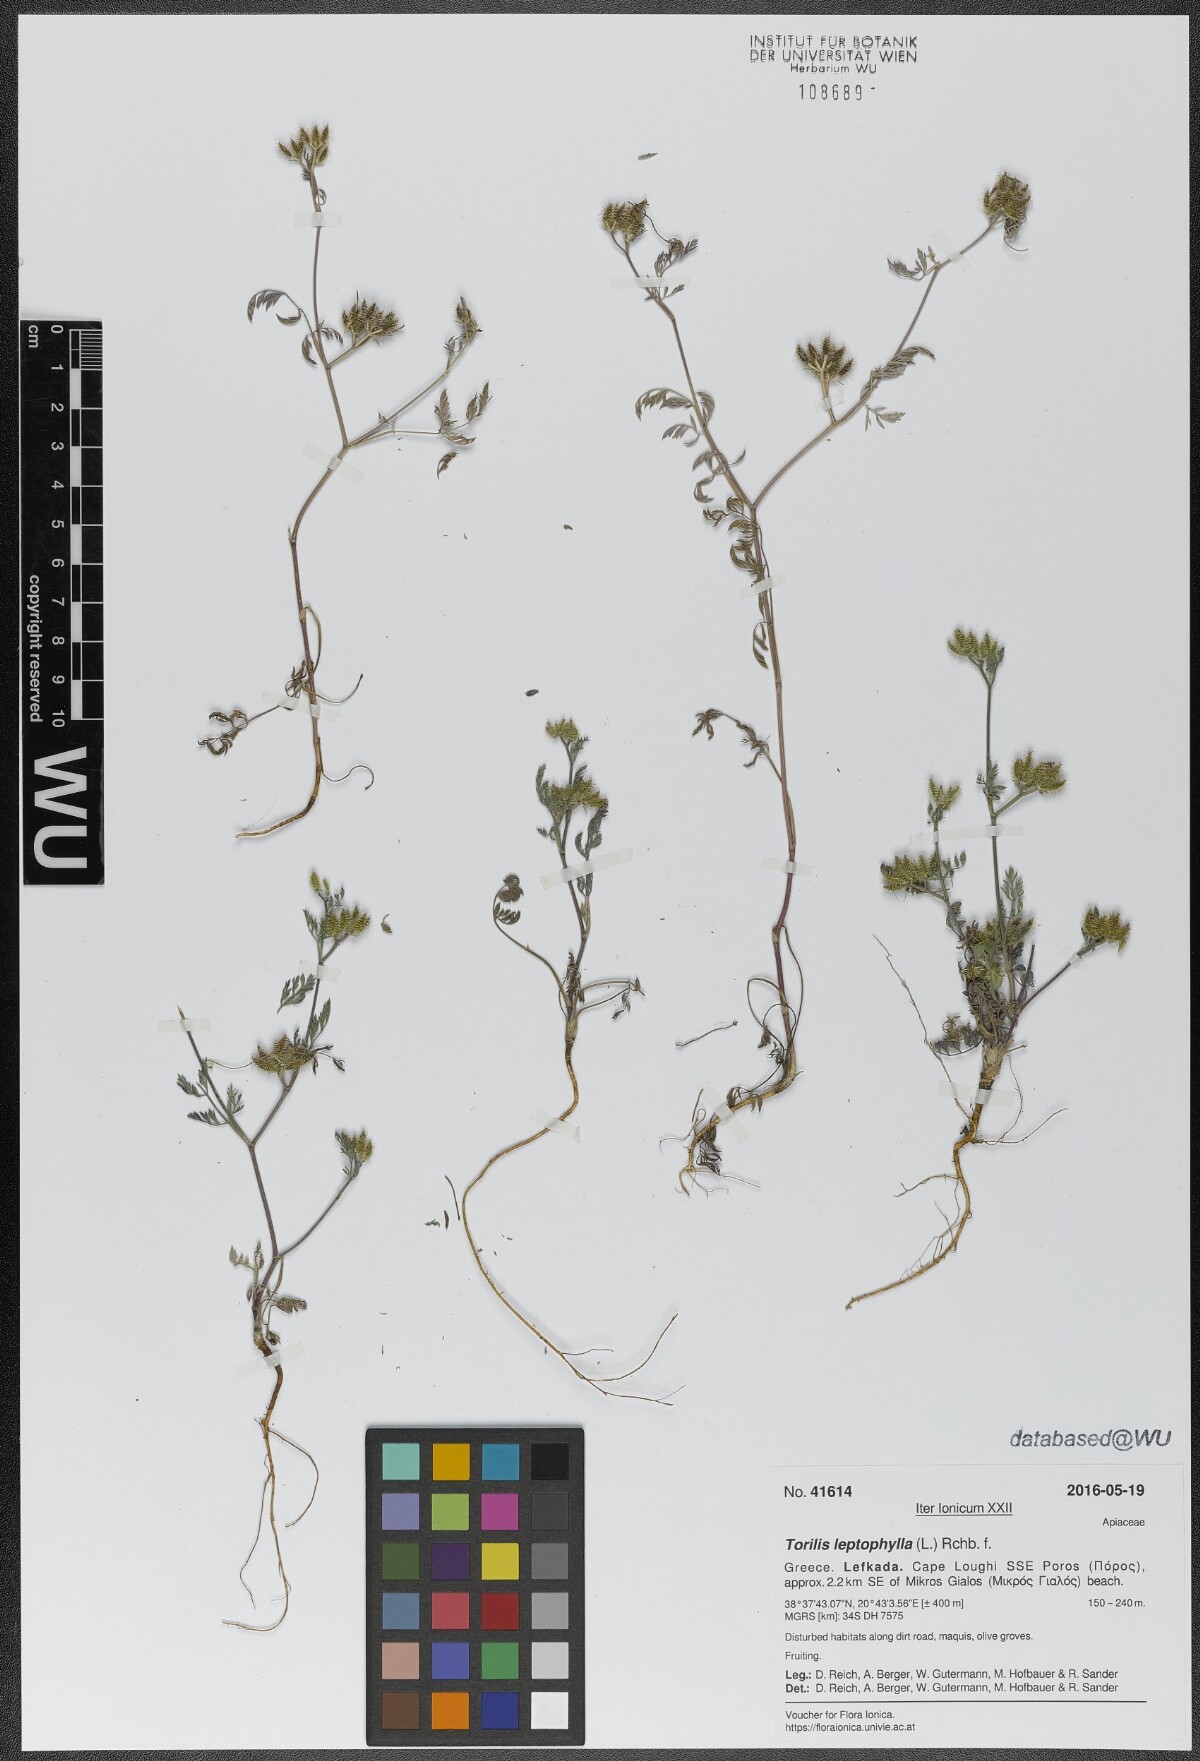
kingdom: Plantae
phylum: Tracheophyta
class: Magnoliopsida
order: Apiales
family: Apiaceae
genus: Torilis
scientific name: Torilis leptophylla
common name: Bristlefruit hedgeparsley
